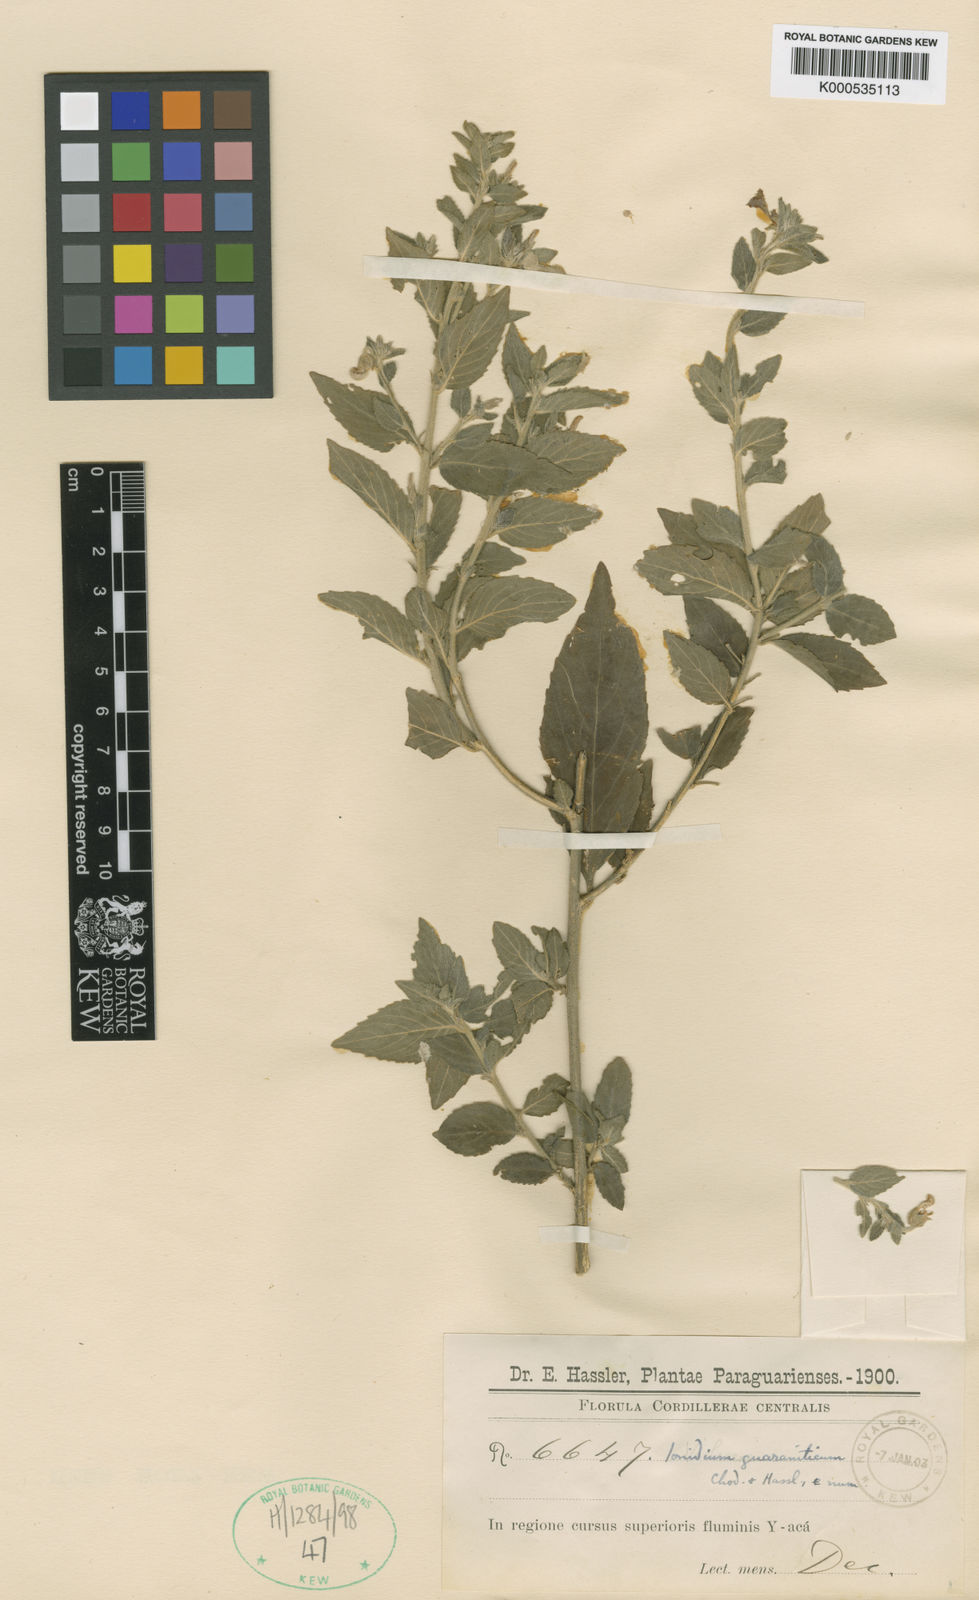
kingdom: Plantae
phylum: Tracheophyta
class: Magnoliopsida
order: Malpighiales
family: Violaceae
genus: Hybanthus
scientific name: Hybanthus
